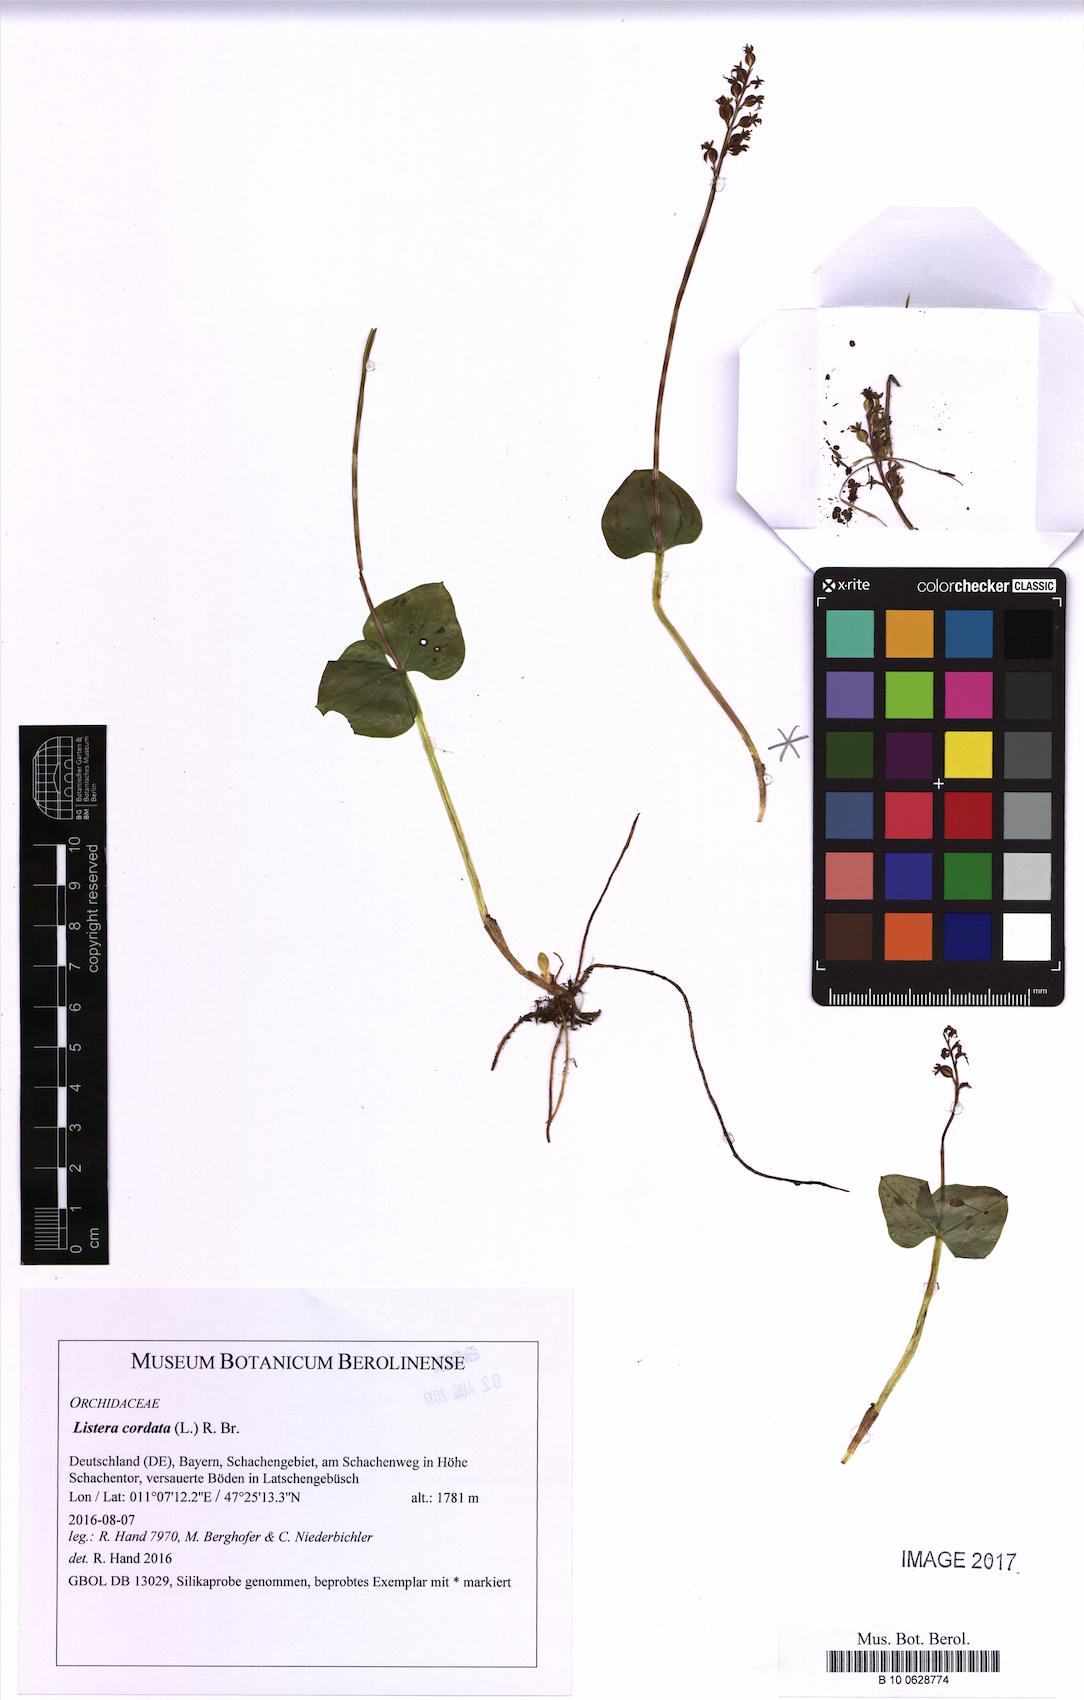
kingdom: Plantae
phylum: Tracheophyta
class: Liliopsida
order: Asparagales
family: Orchidaceae
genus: Neottia
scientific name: Neottia cordata
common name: Lesser twayblade
